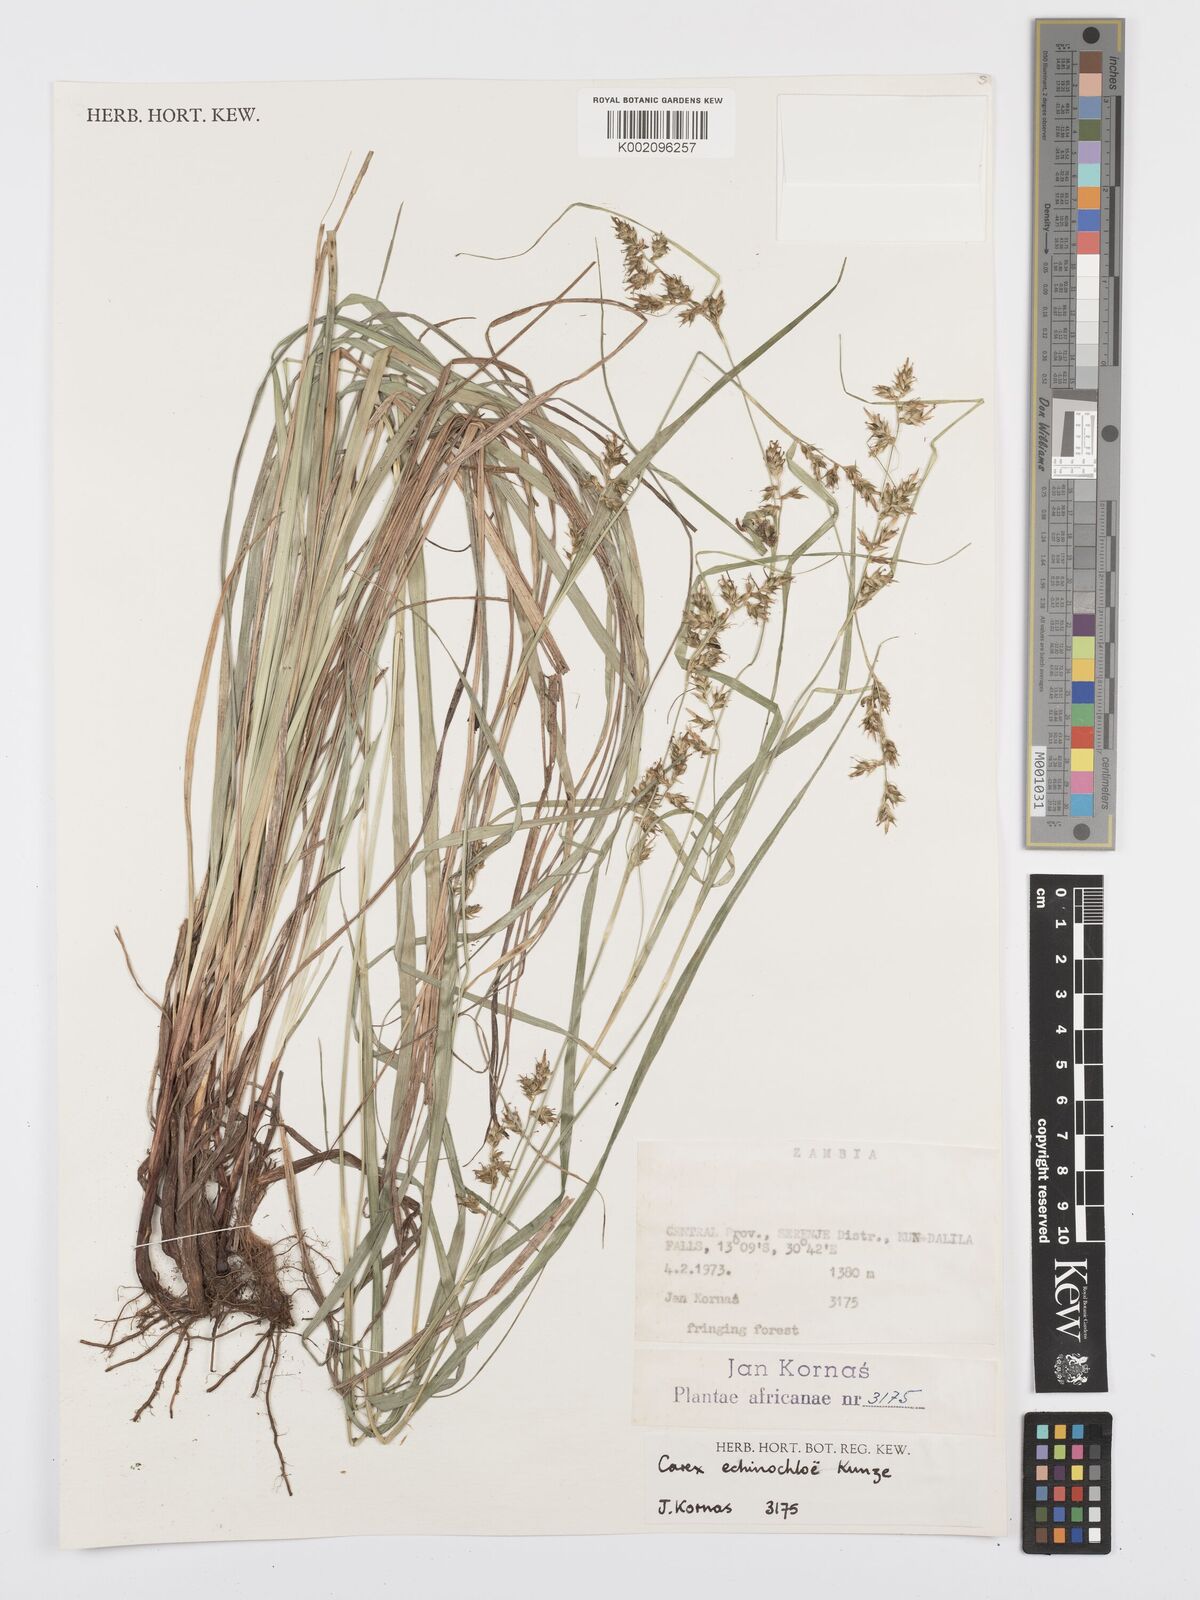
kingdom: Plantae
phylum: Tracheophyta
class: Liliopsida
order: Poales
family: Cyperaceae
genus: Carex
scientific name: Carex echinochloe
